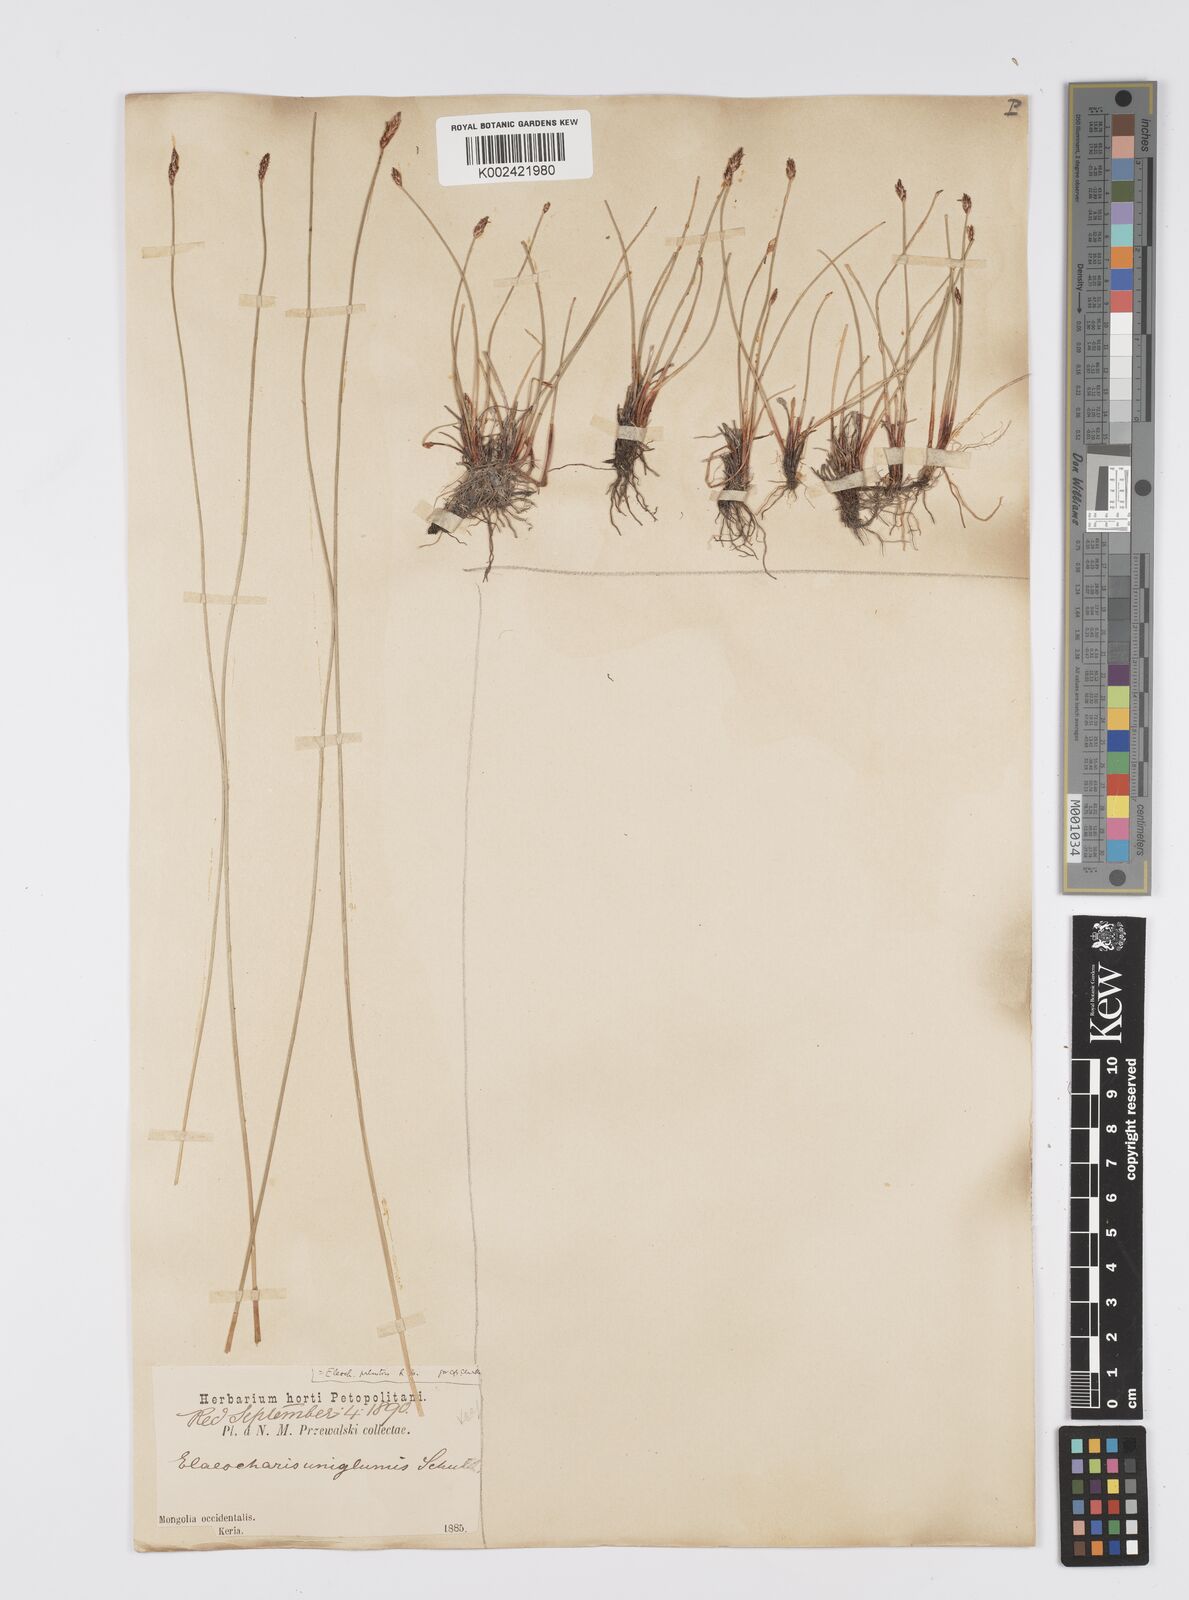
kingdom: Plantae
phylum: Tracheophyta
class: Liliopsida
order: Poales
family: Cyperaceae
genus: Eleocharis
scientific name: Eleocharis palustris
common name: Common spike-rush
